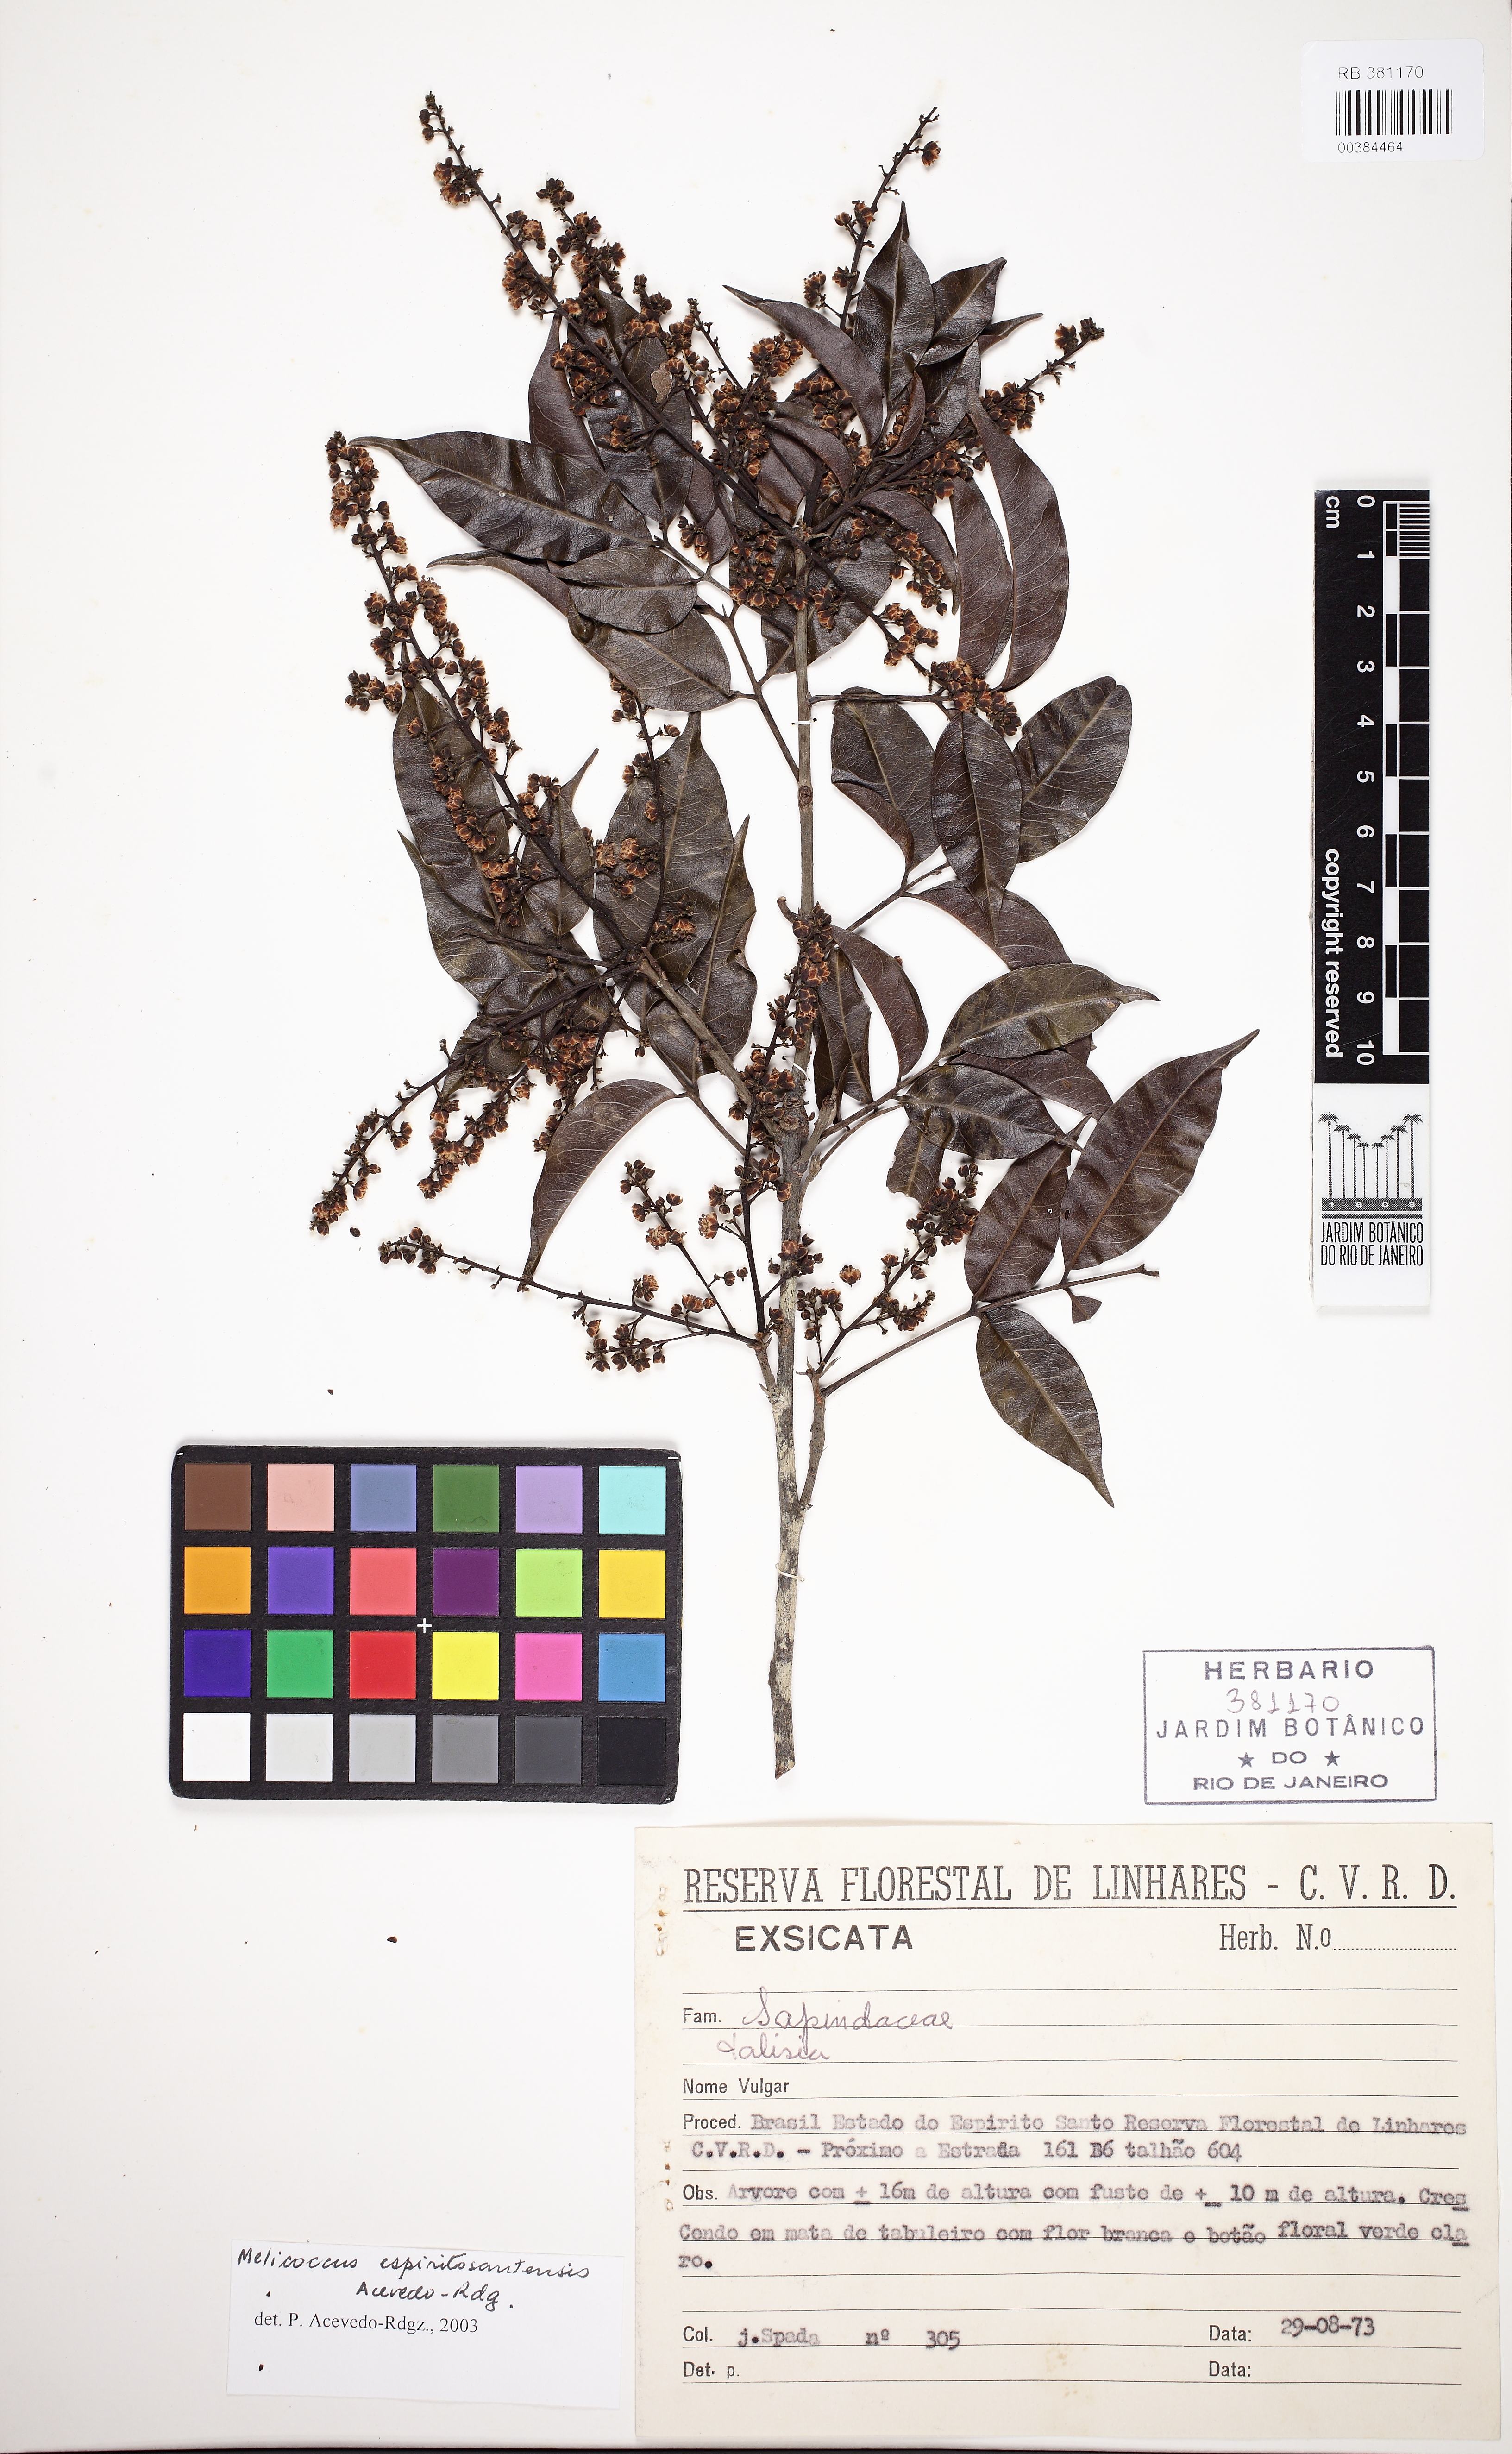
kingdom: Plantae
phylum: Tracheophyta
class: Magnoliopsida
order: Sapindales
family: Sapindaceae
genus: Melicoccus
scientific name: Melicoccus espiritosantensis
